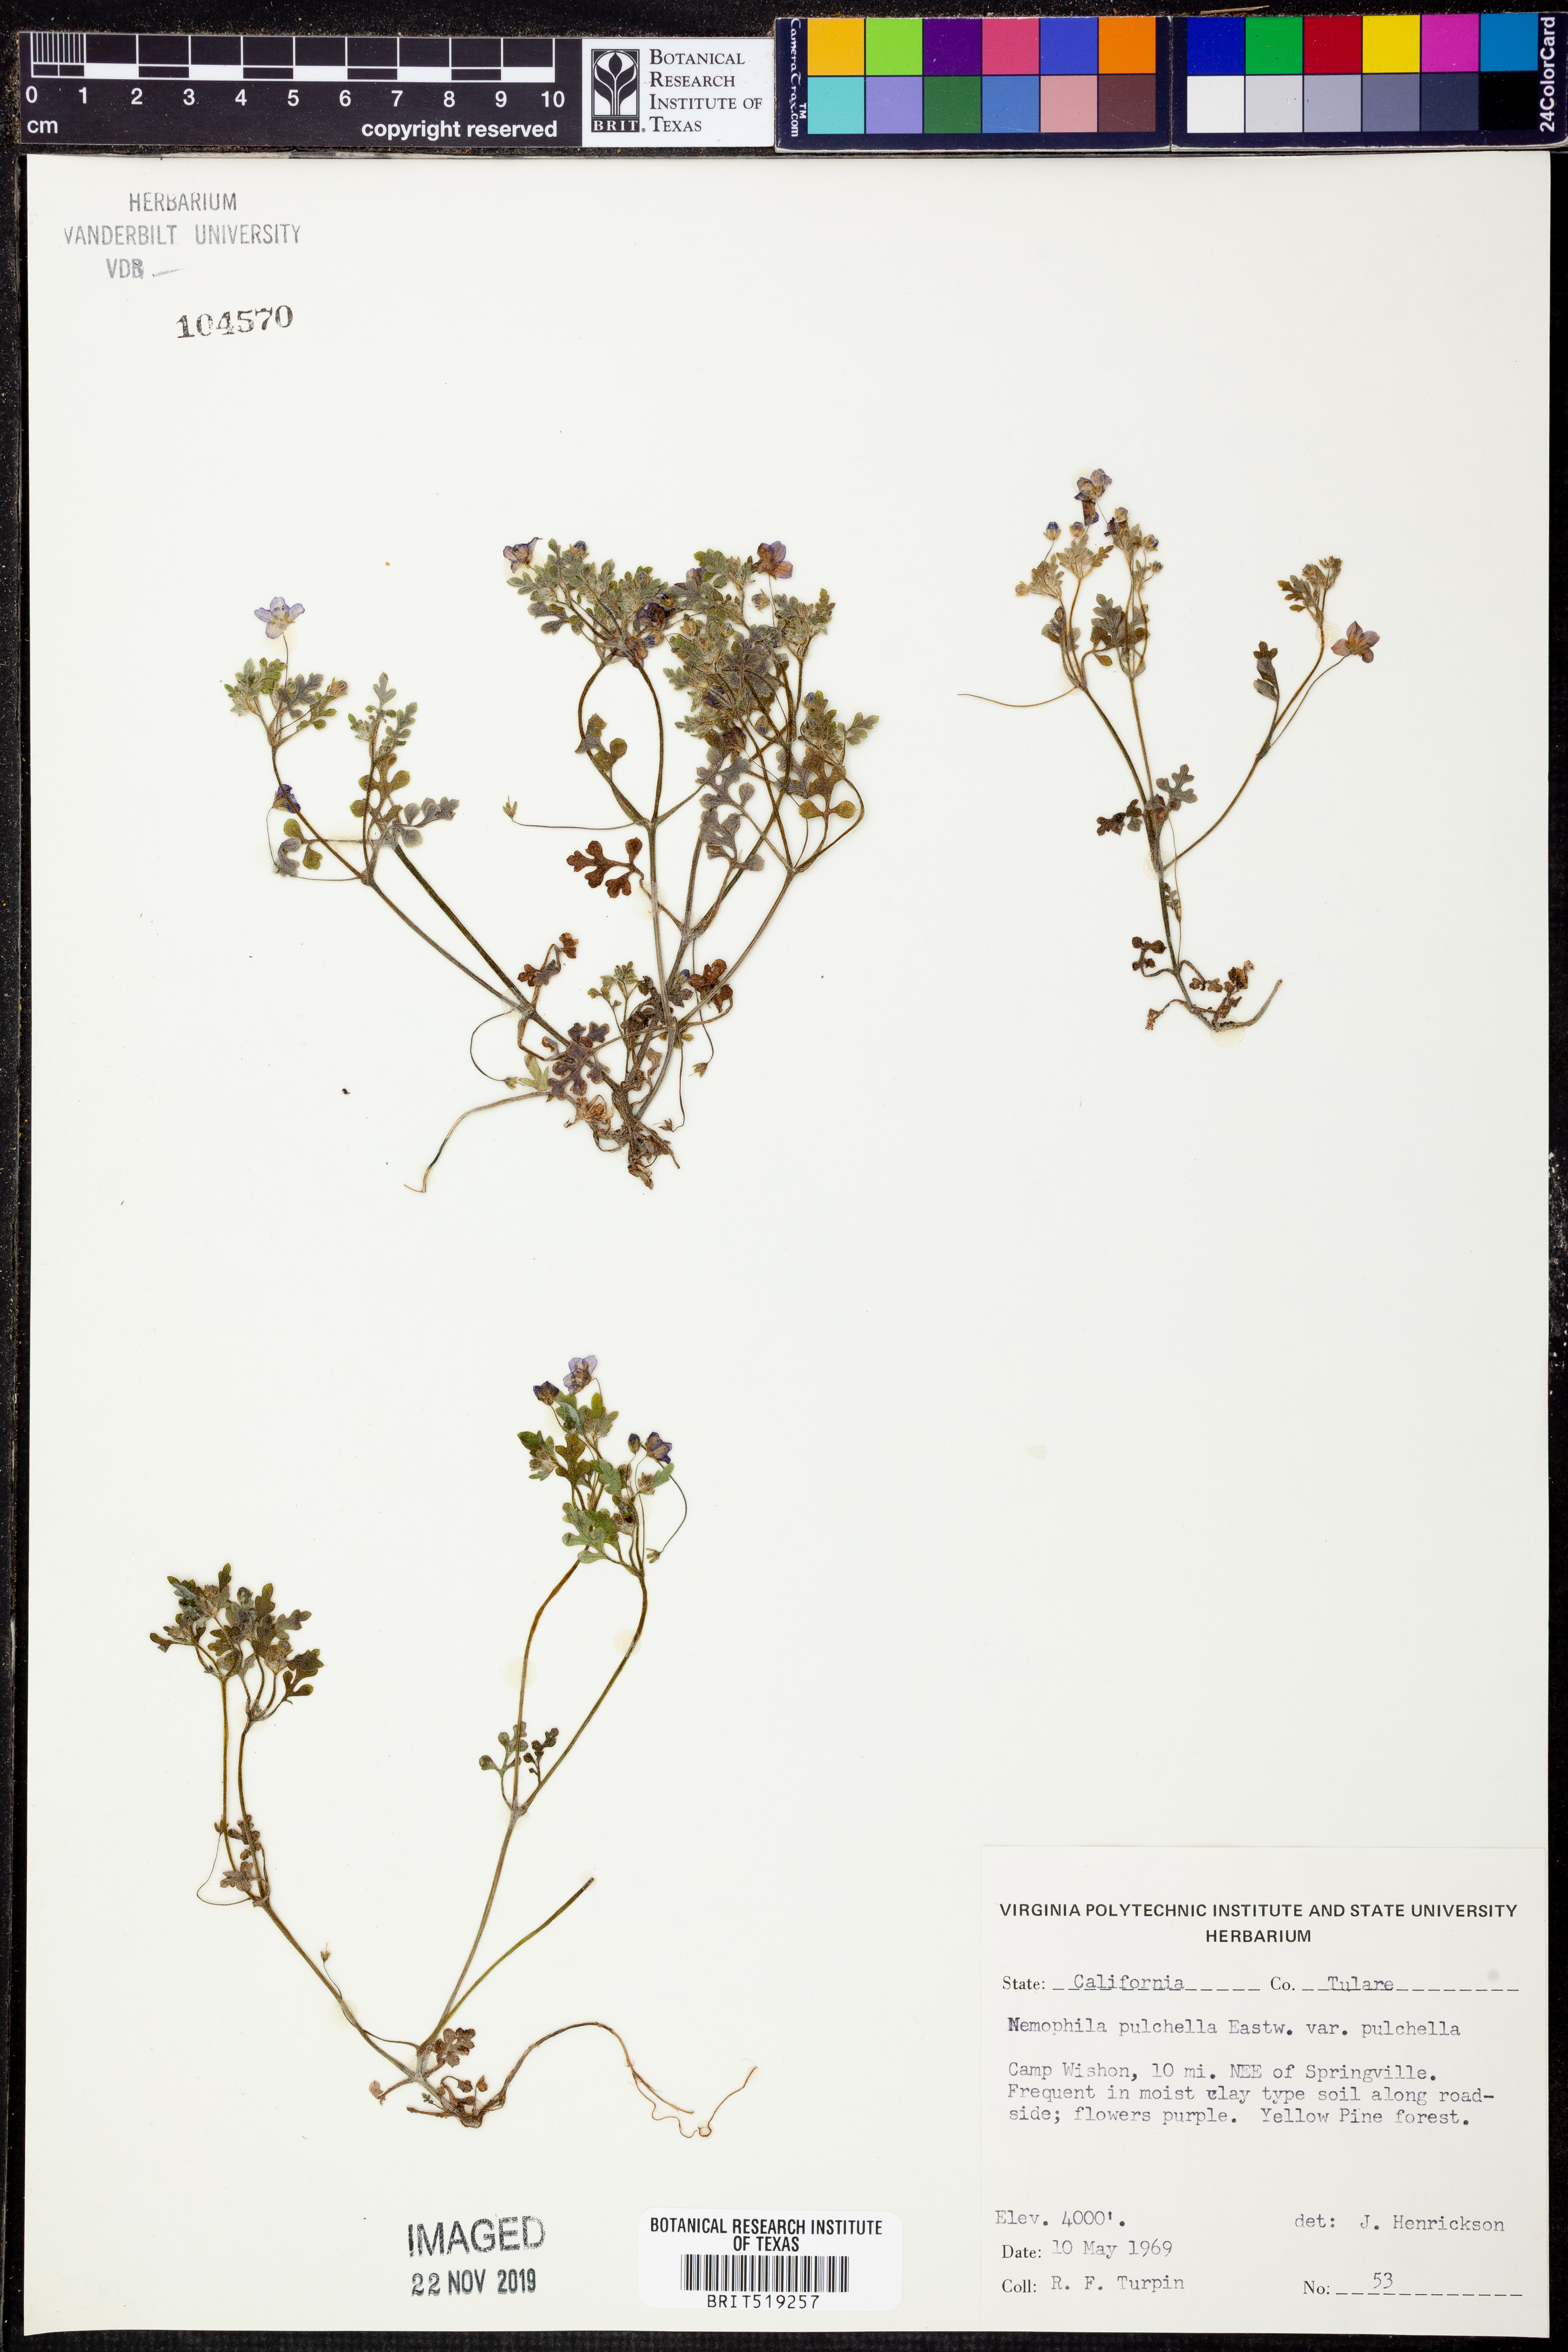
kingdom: Plantae
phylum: Tracheophyta
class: Magnoliopsida
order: Boraginales
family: Hydrophyllaceae
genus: Nemophila
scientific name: Nemophila pulchella
